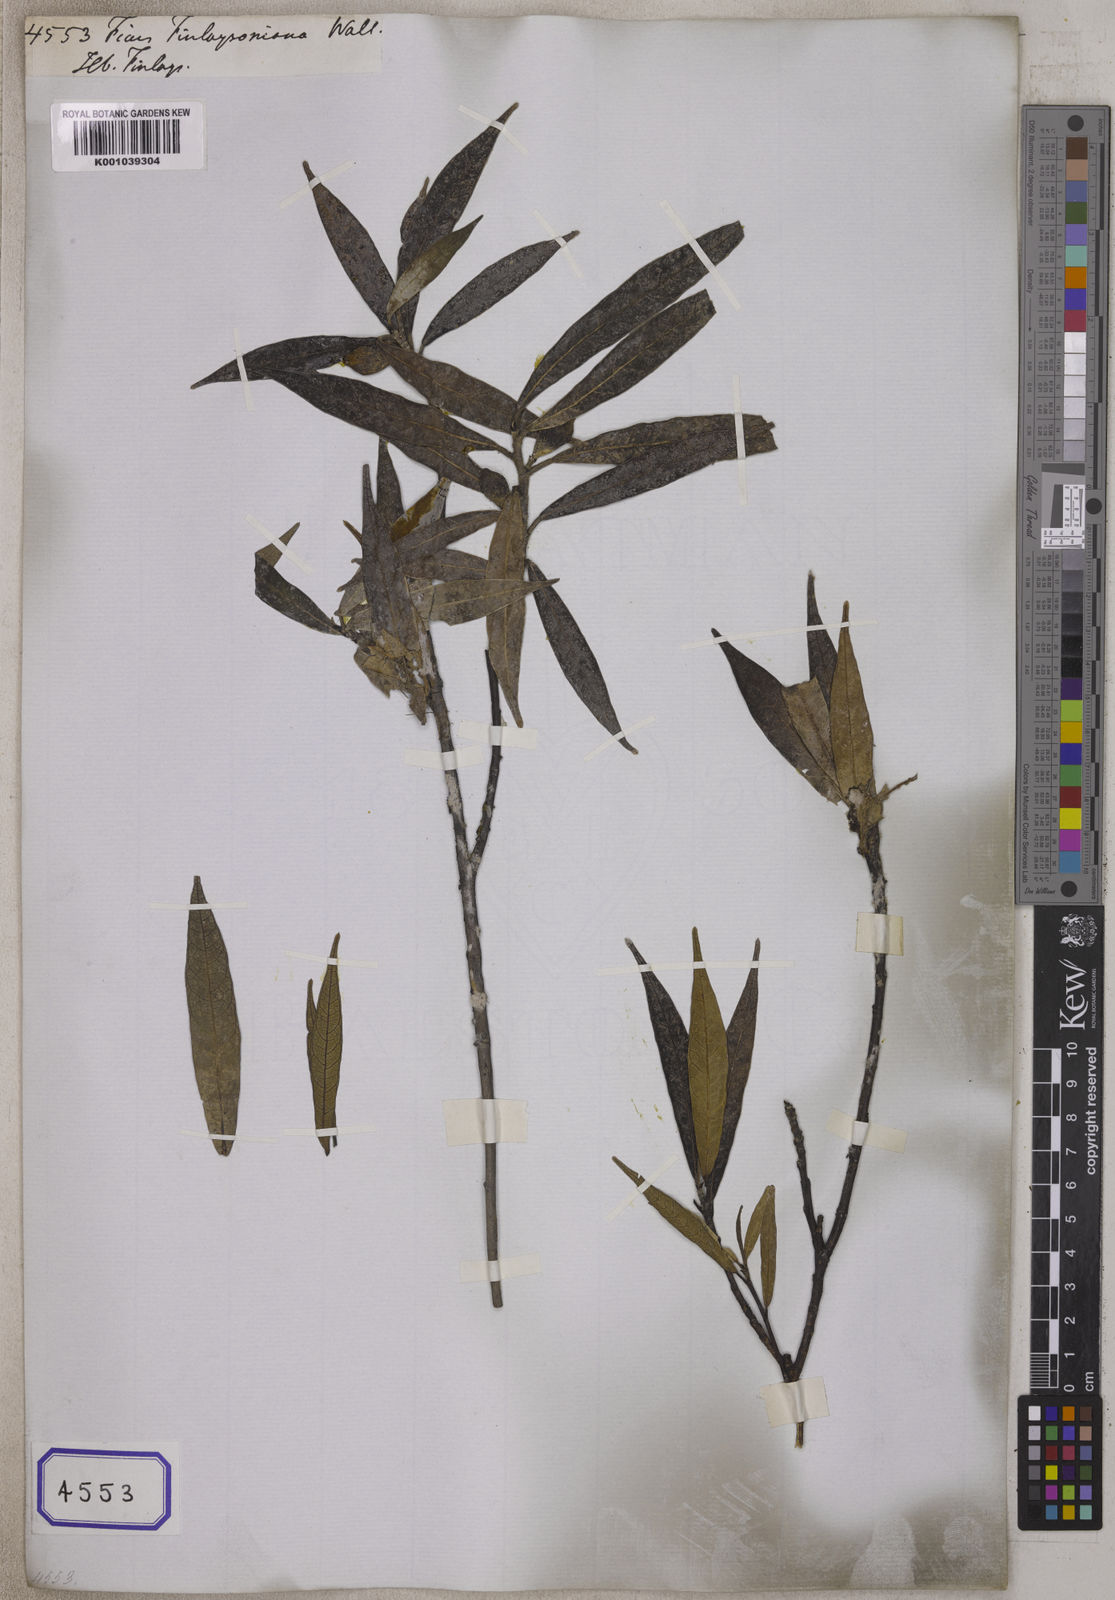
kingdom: Plantae
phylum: Tracheophyta
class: Magnoliopsida
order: Rosales
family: Moraceae
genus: Ficus
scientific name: Ficus
